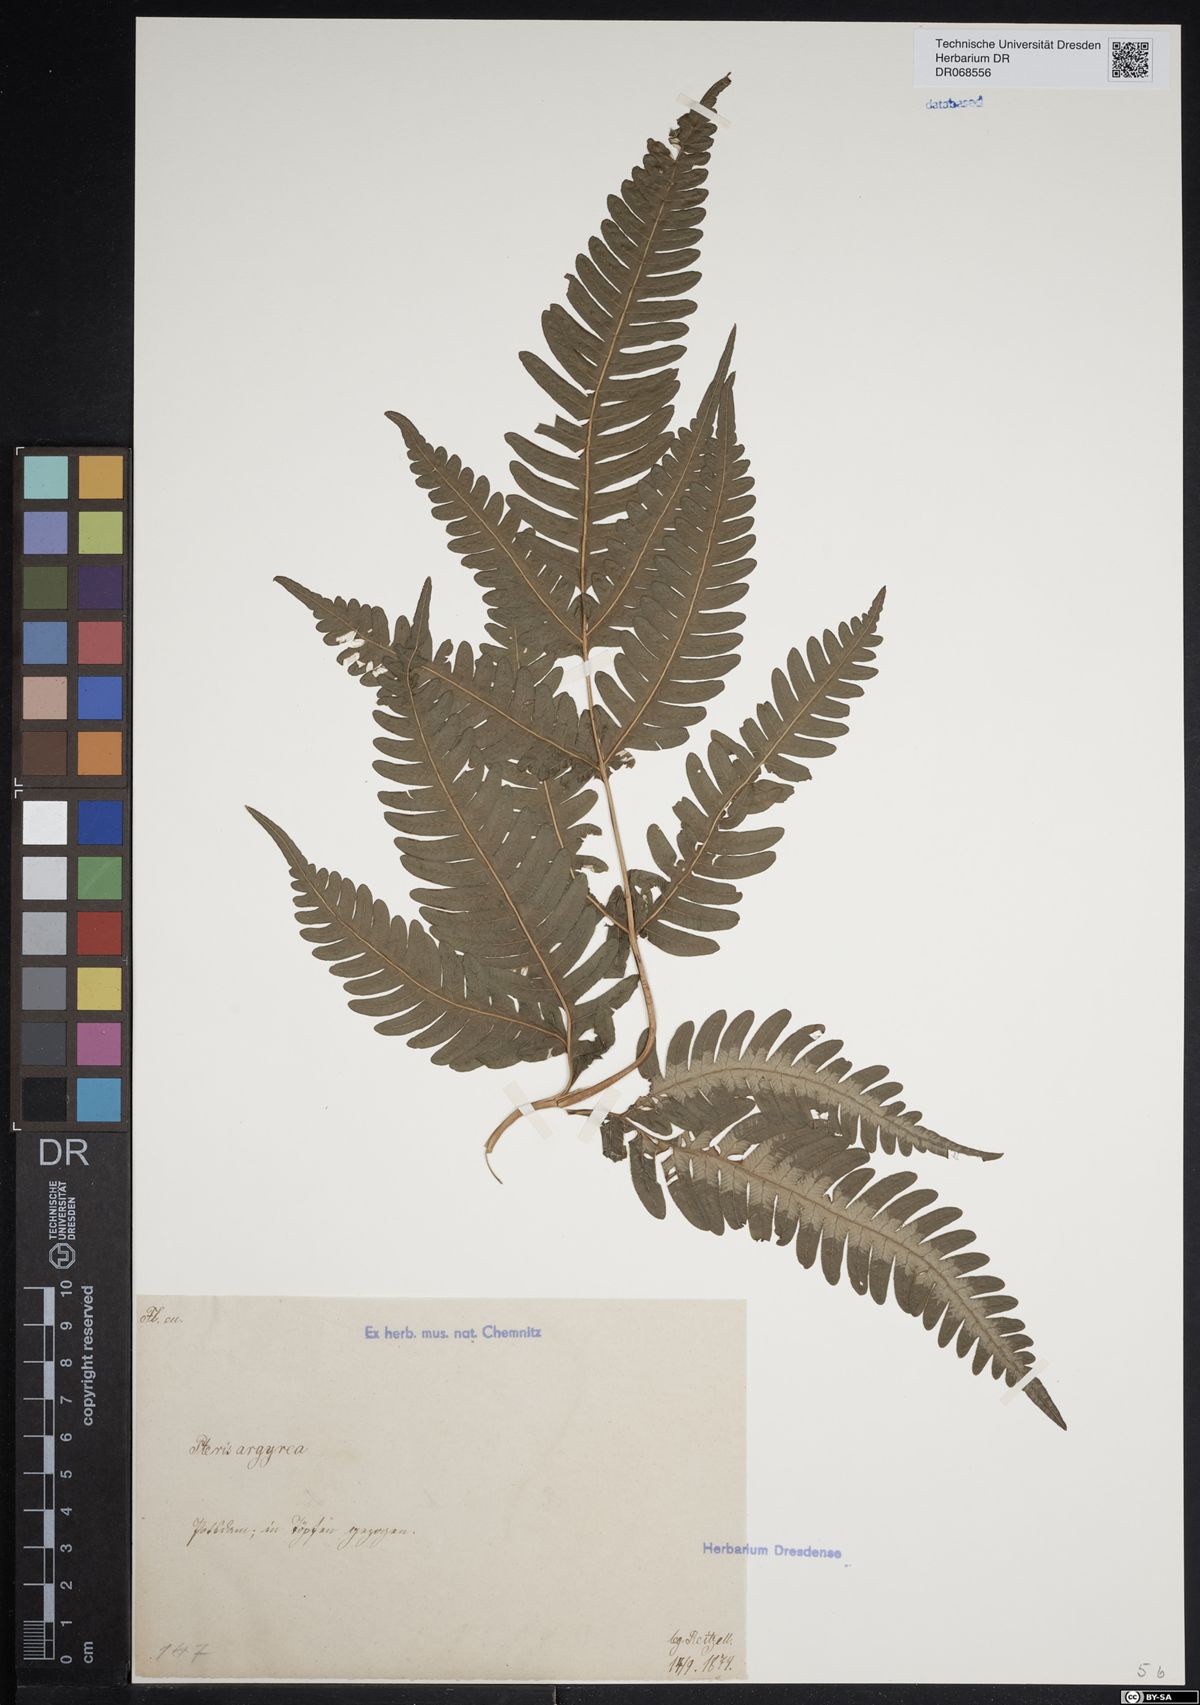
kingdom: Plantae
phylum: Tracheophyta
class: Polypodiopsida
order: Polypodiales
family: Pteridaceae
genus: Pteris
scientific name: Pteris argyraea
